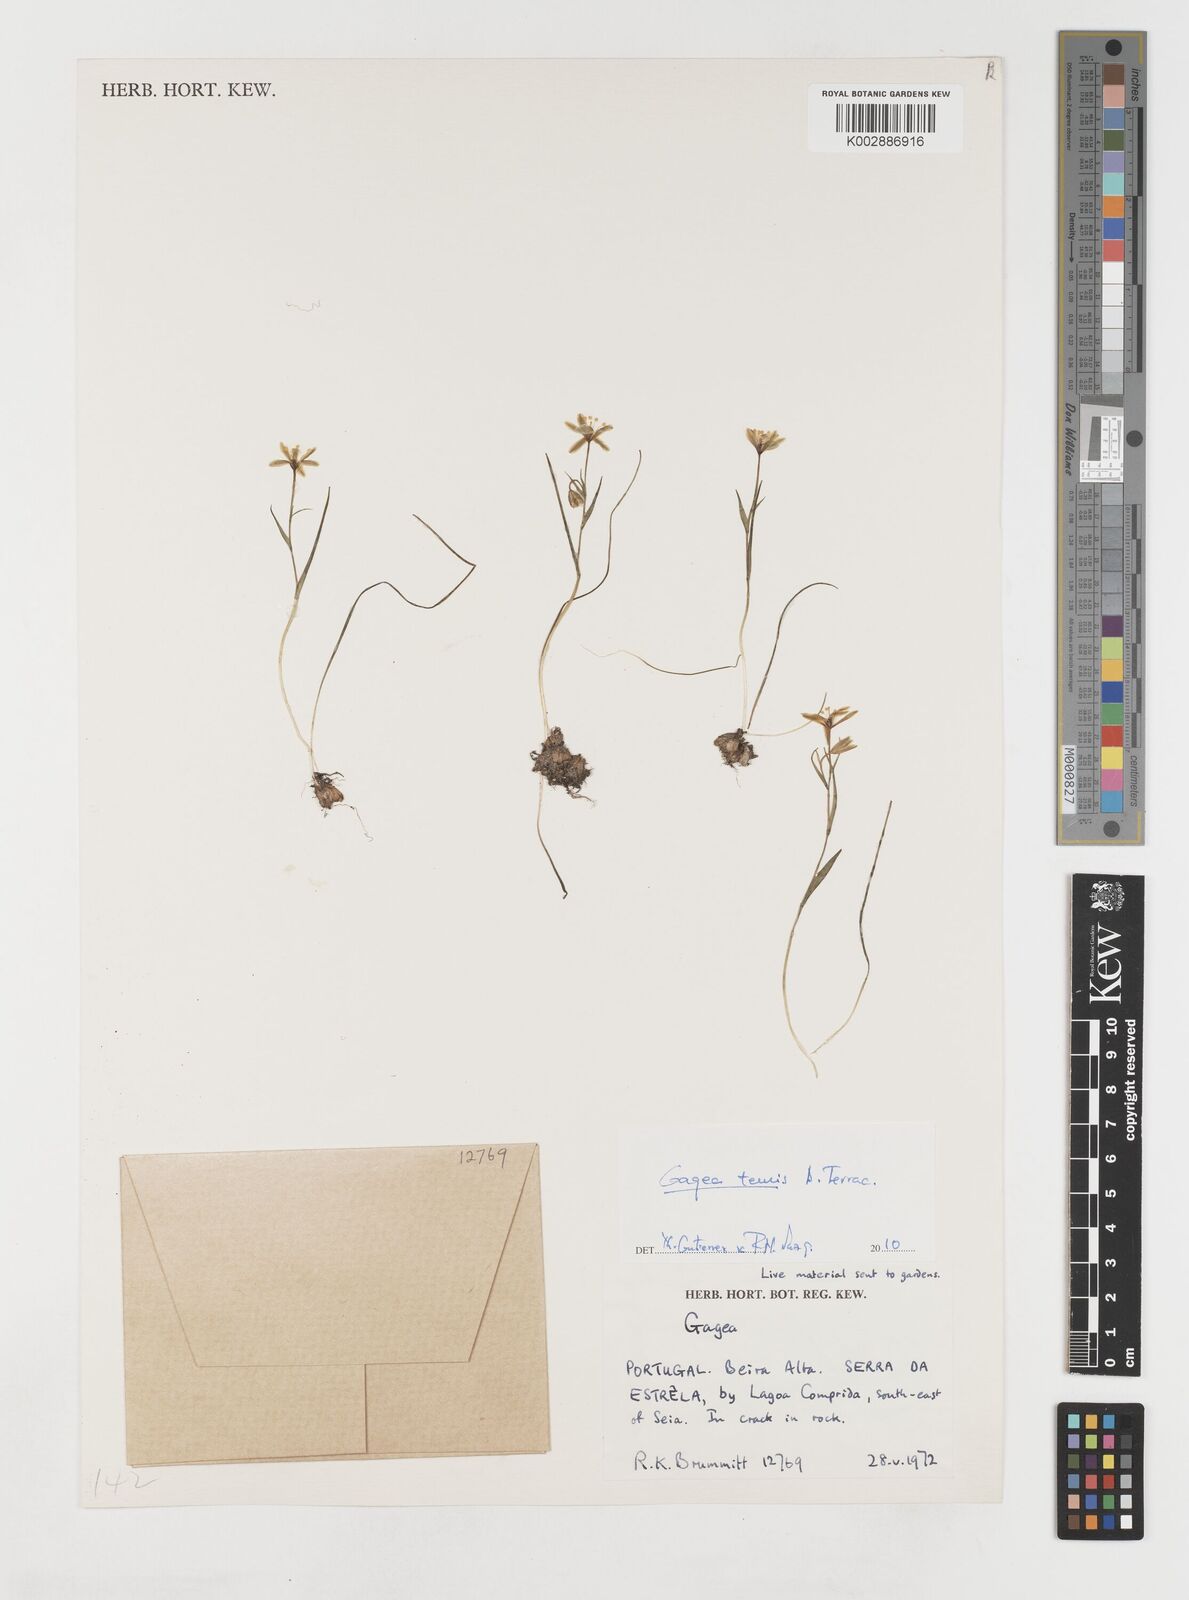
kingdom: Plantae
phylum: Tracheophyta
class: Liliopsida
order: Liliales
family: Liliaceae
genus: Gagea
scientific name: Gagea soleirolii
